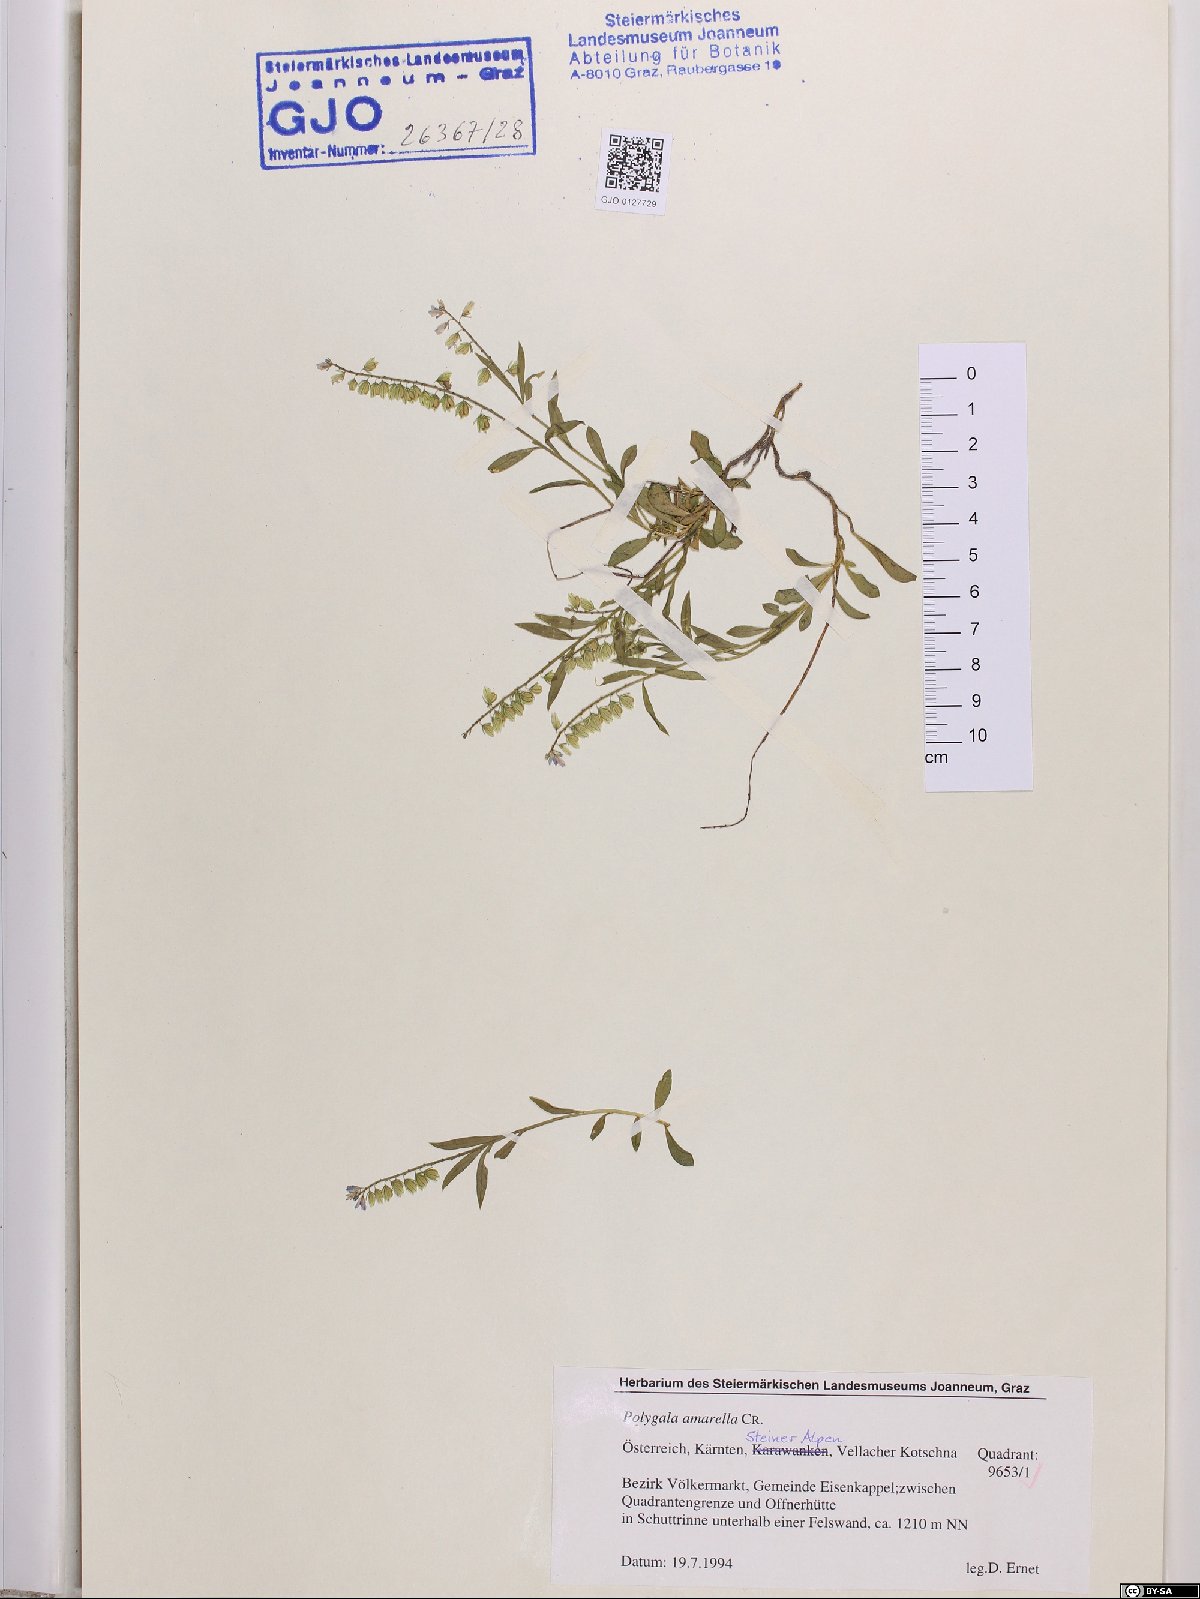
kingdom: Plantae
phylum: Tracheophyta
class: Magnoliopsida
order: Fabales
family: Polygalaceae
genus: Polygala
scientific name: Polygala amarella
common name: Dwarf milkwort
